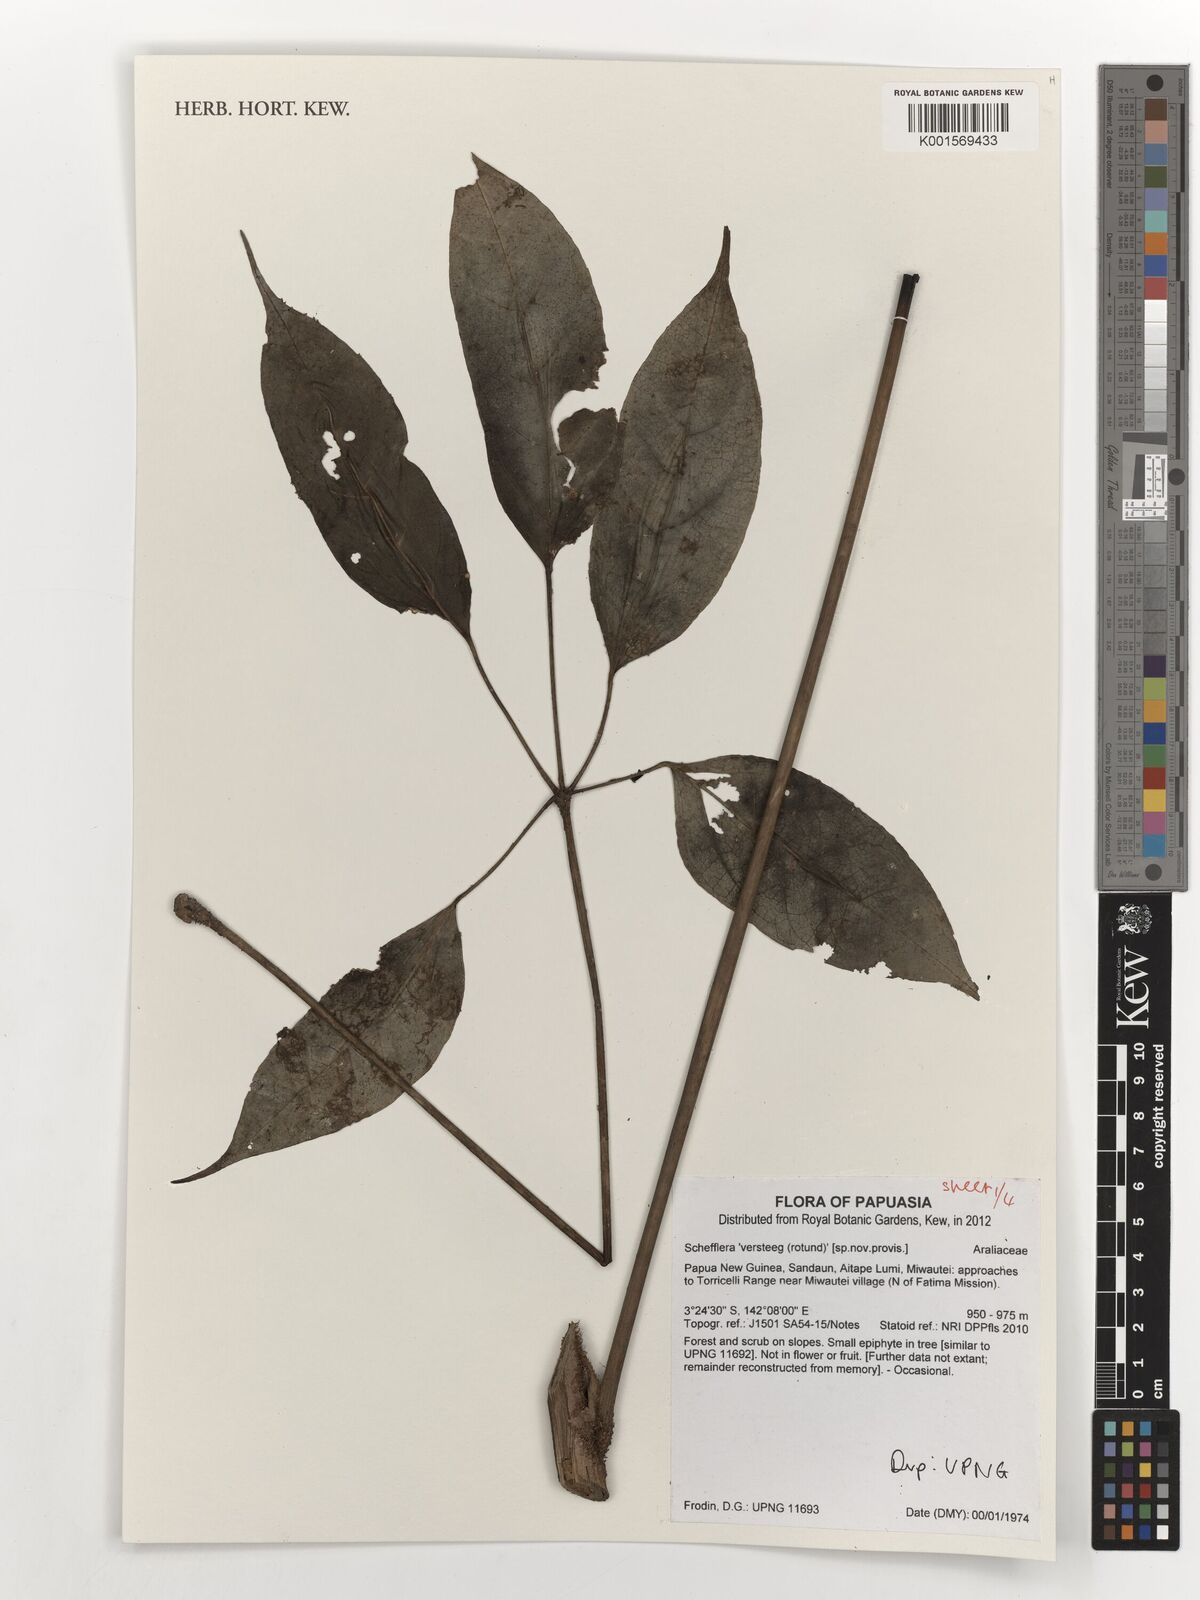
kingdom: Plantae
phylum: Tracheophyta
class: Magnoliopsida
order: Apiales
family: Araliaceae
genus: Schefflera
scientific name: Schefflera
